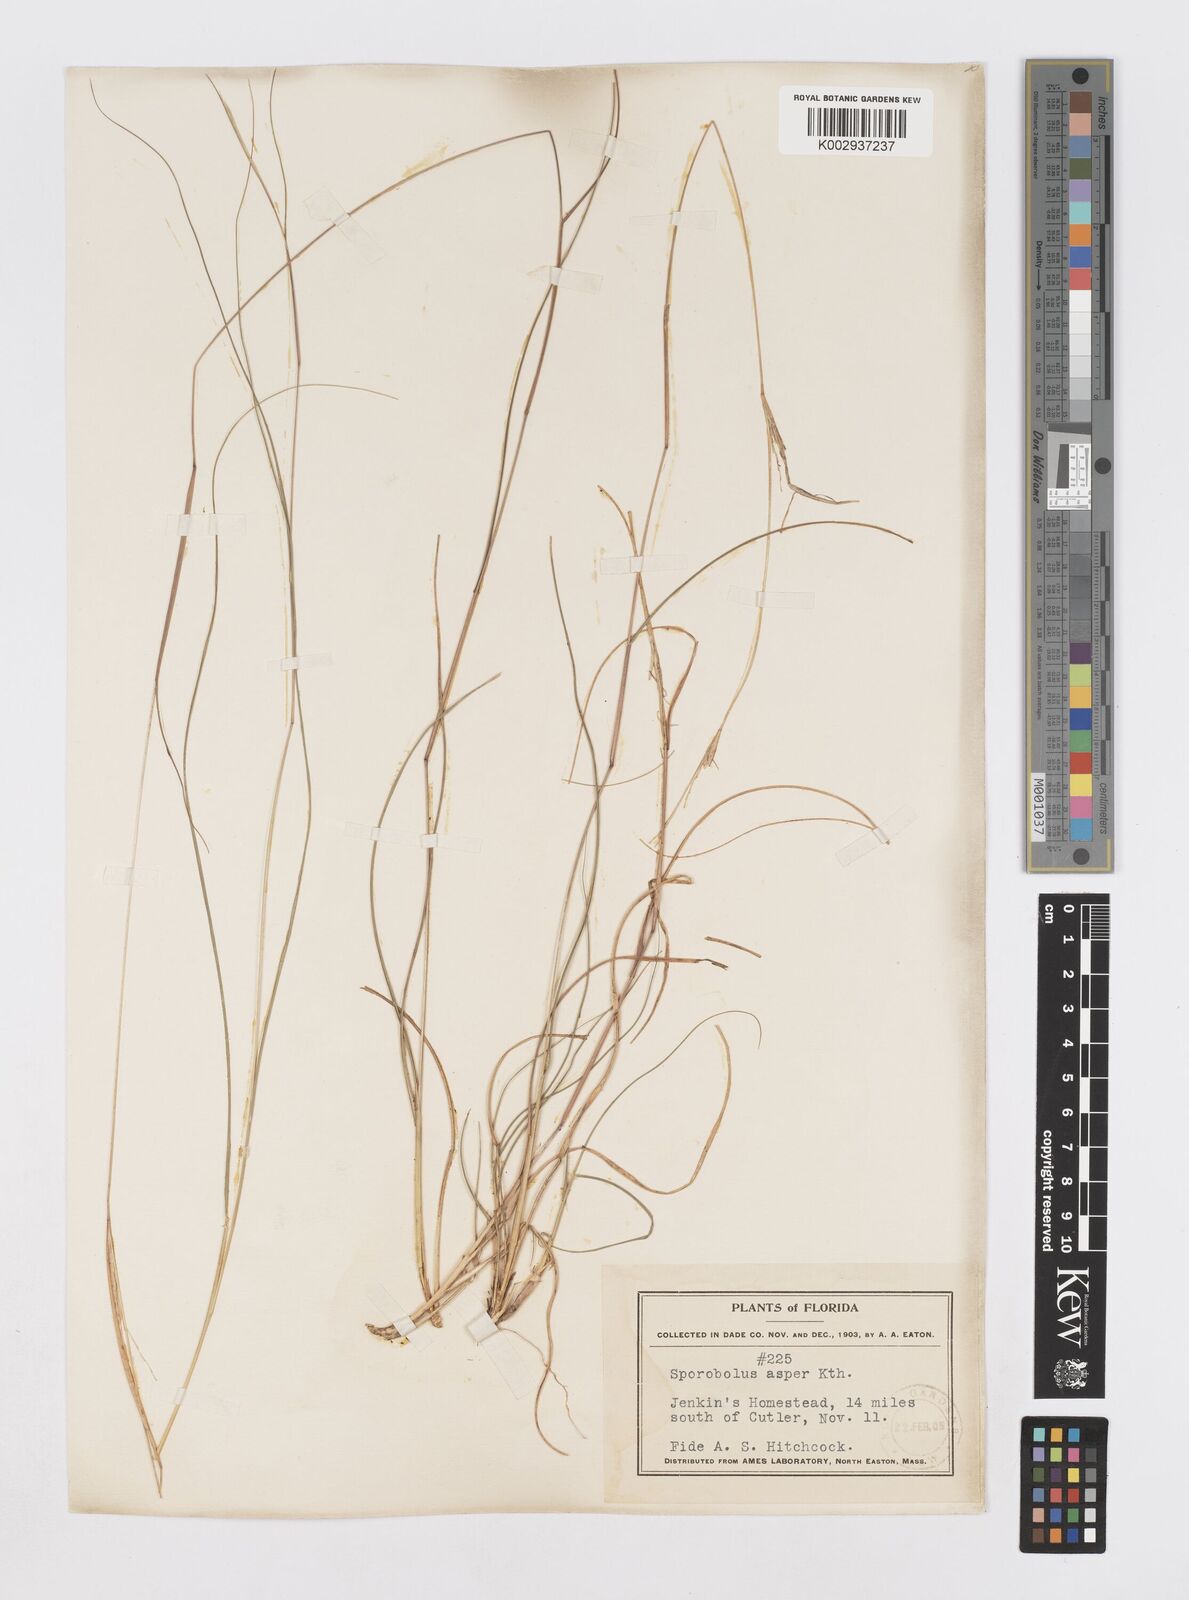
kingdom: Plantae
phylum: Tracheophyta
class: Liliopsida
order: Poales
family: Poaceae
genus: Sporobolus
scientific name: Sporobolus clandestinus
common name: Hidden dropseed
